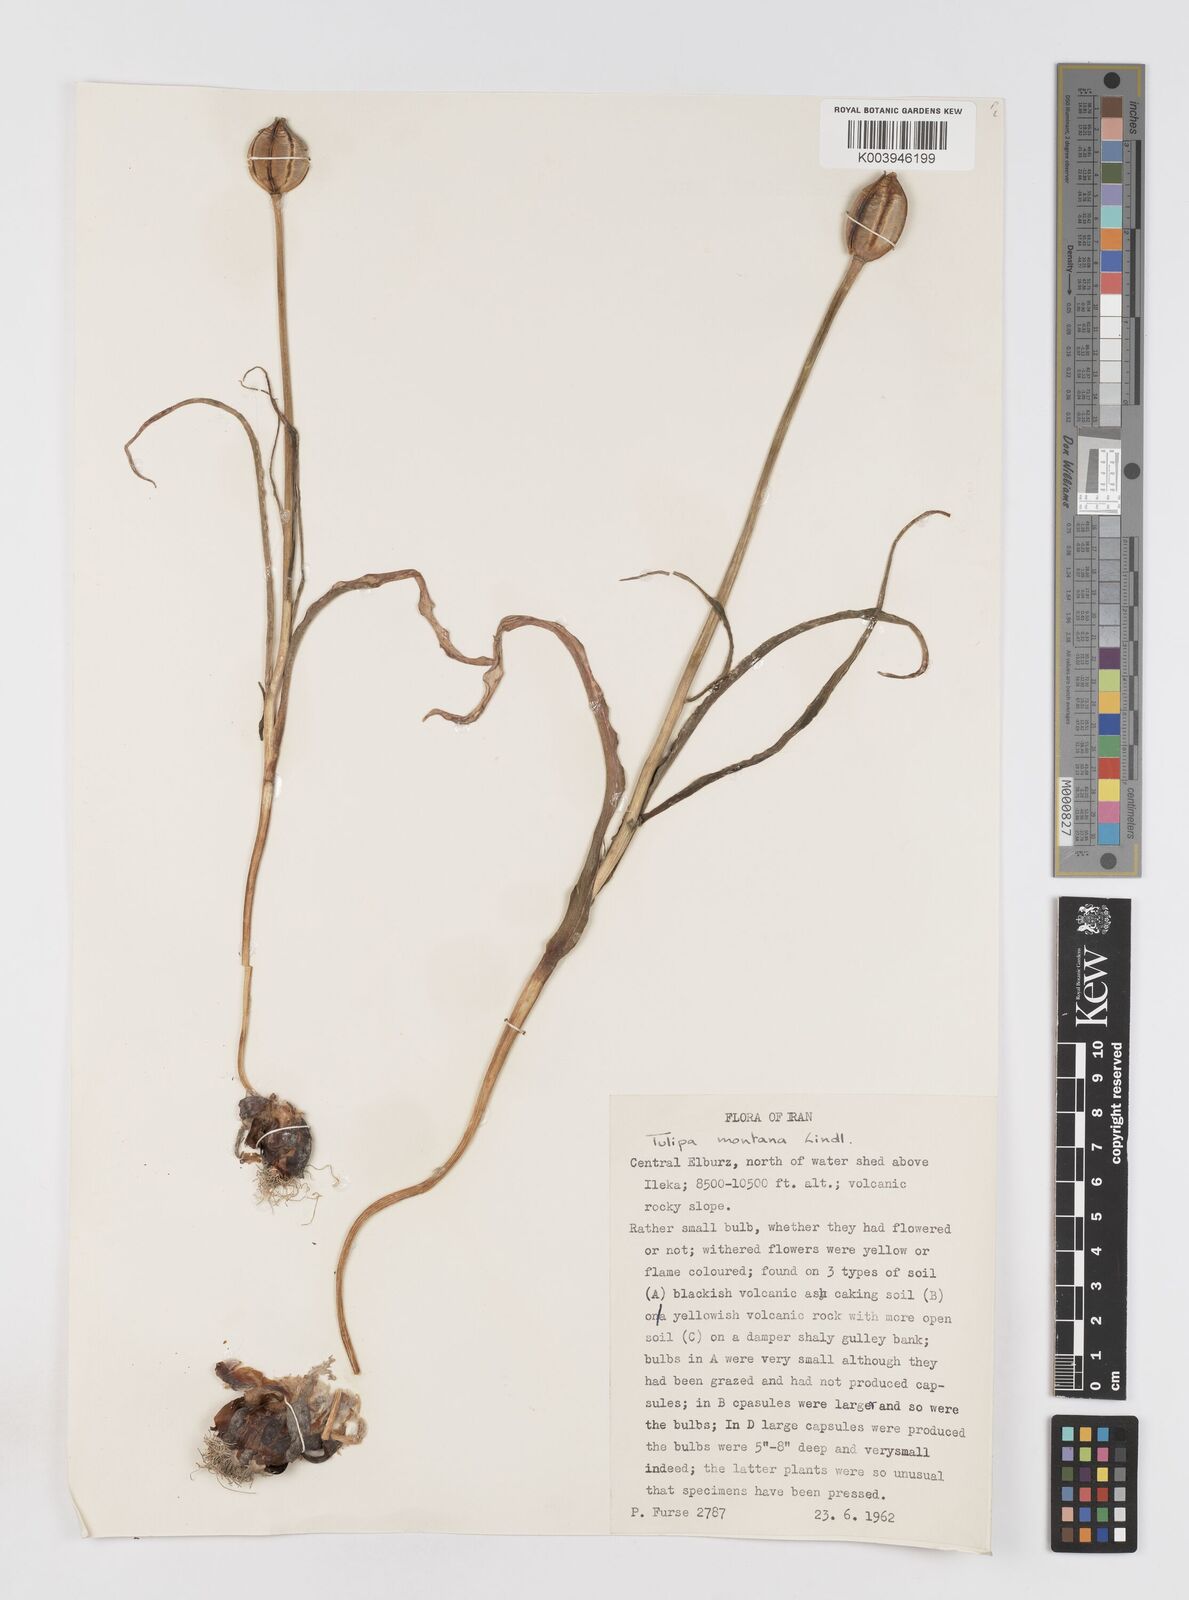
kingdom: Plantae
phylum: Tracheophyta
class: Liliopsida
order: Liliales
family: Liliaceae
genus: Tulipa
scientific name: Tulipa montana
